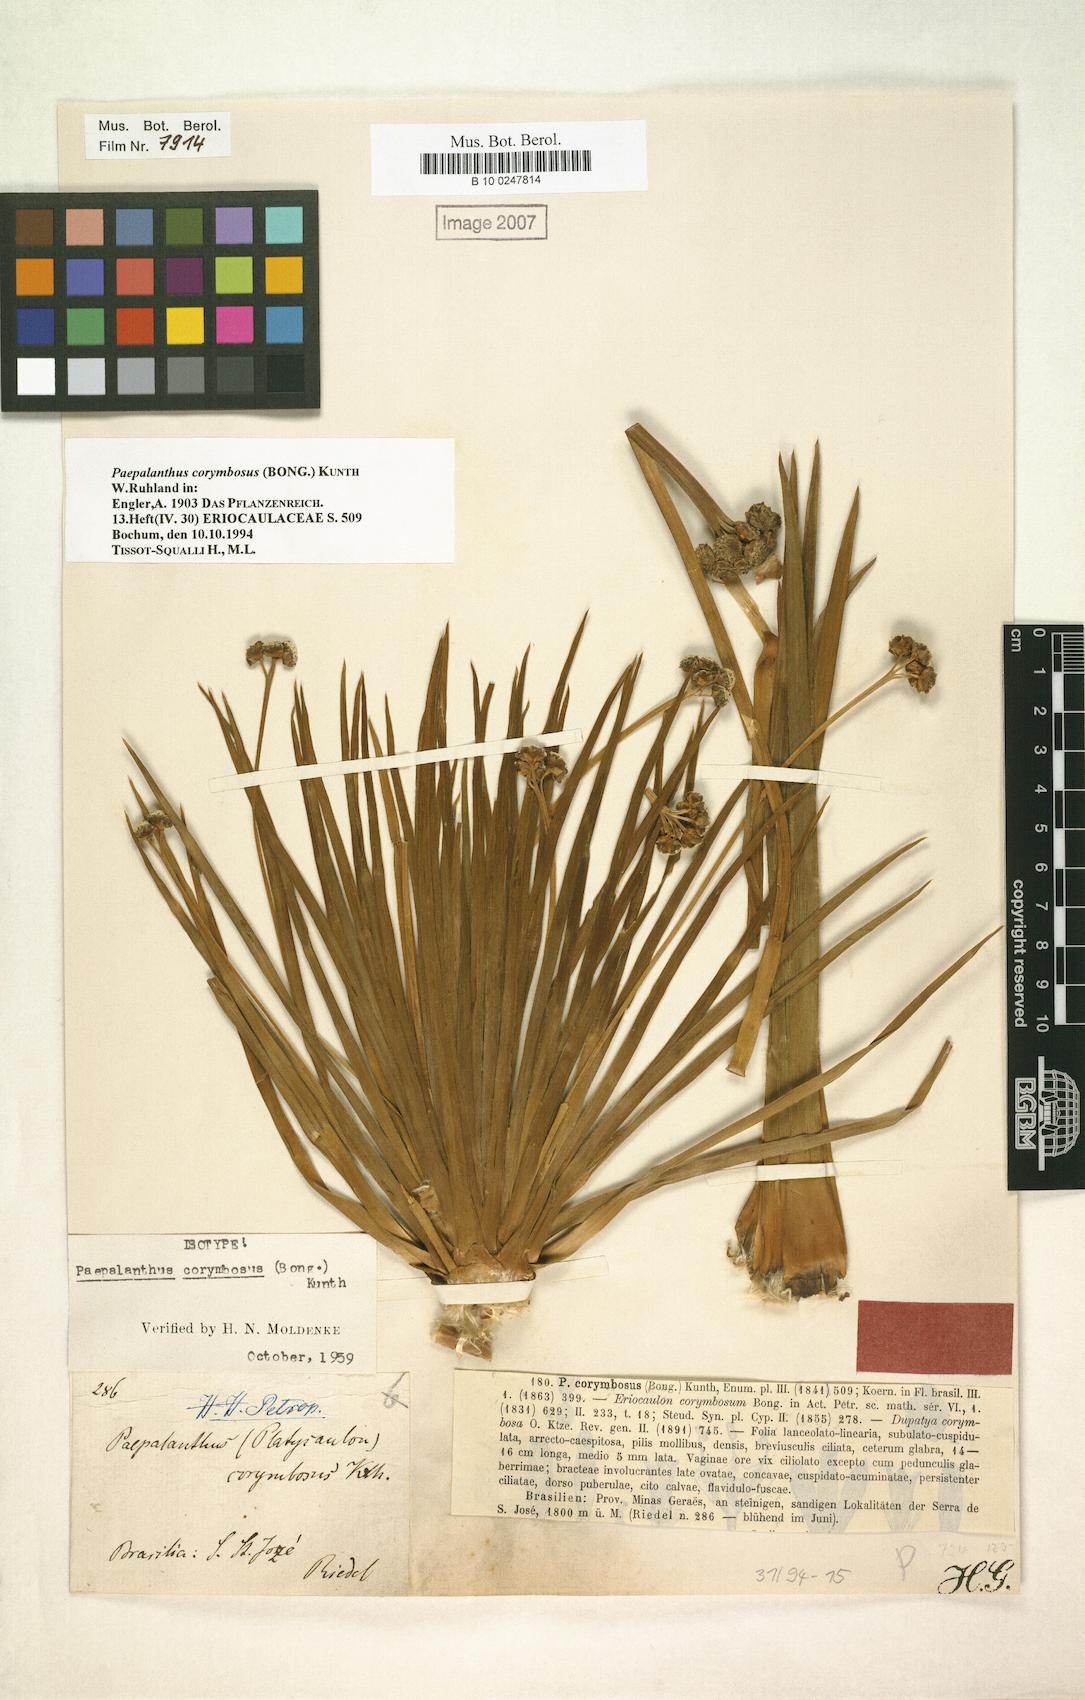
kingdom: Plantae
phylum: Tracheophyta
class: Liliopsida
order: Poales
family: Eriocaulaceae
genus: Paepalanthus
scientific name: Paepalanthus corymbosus
